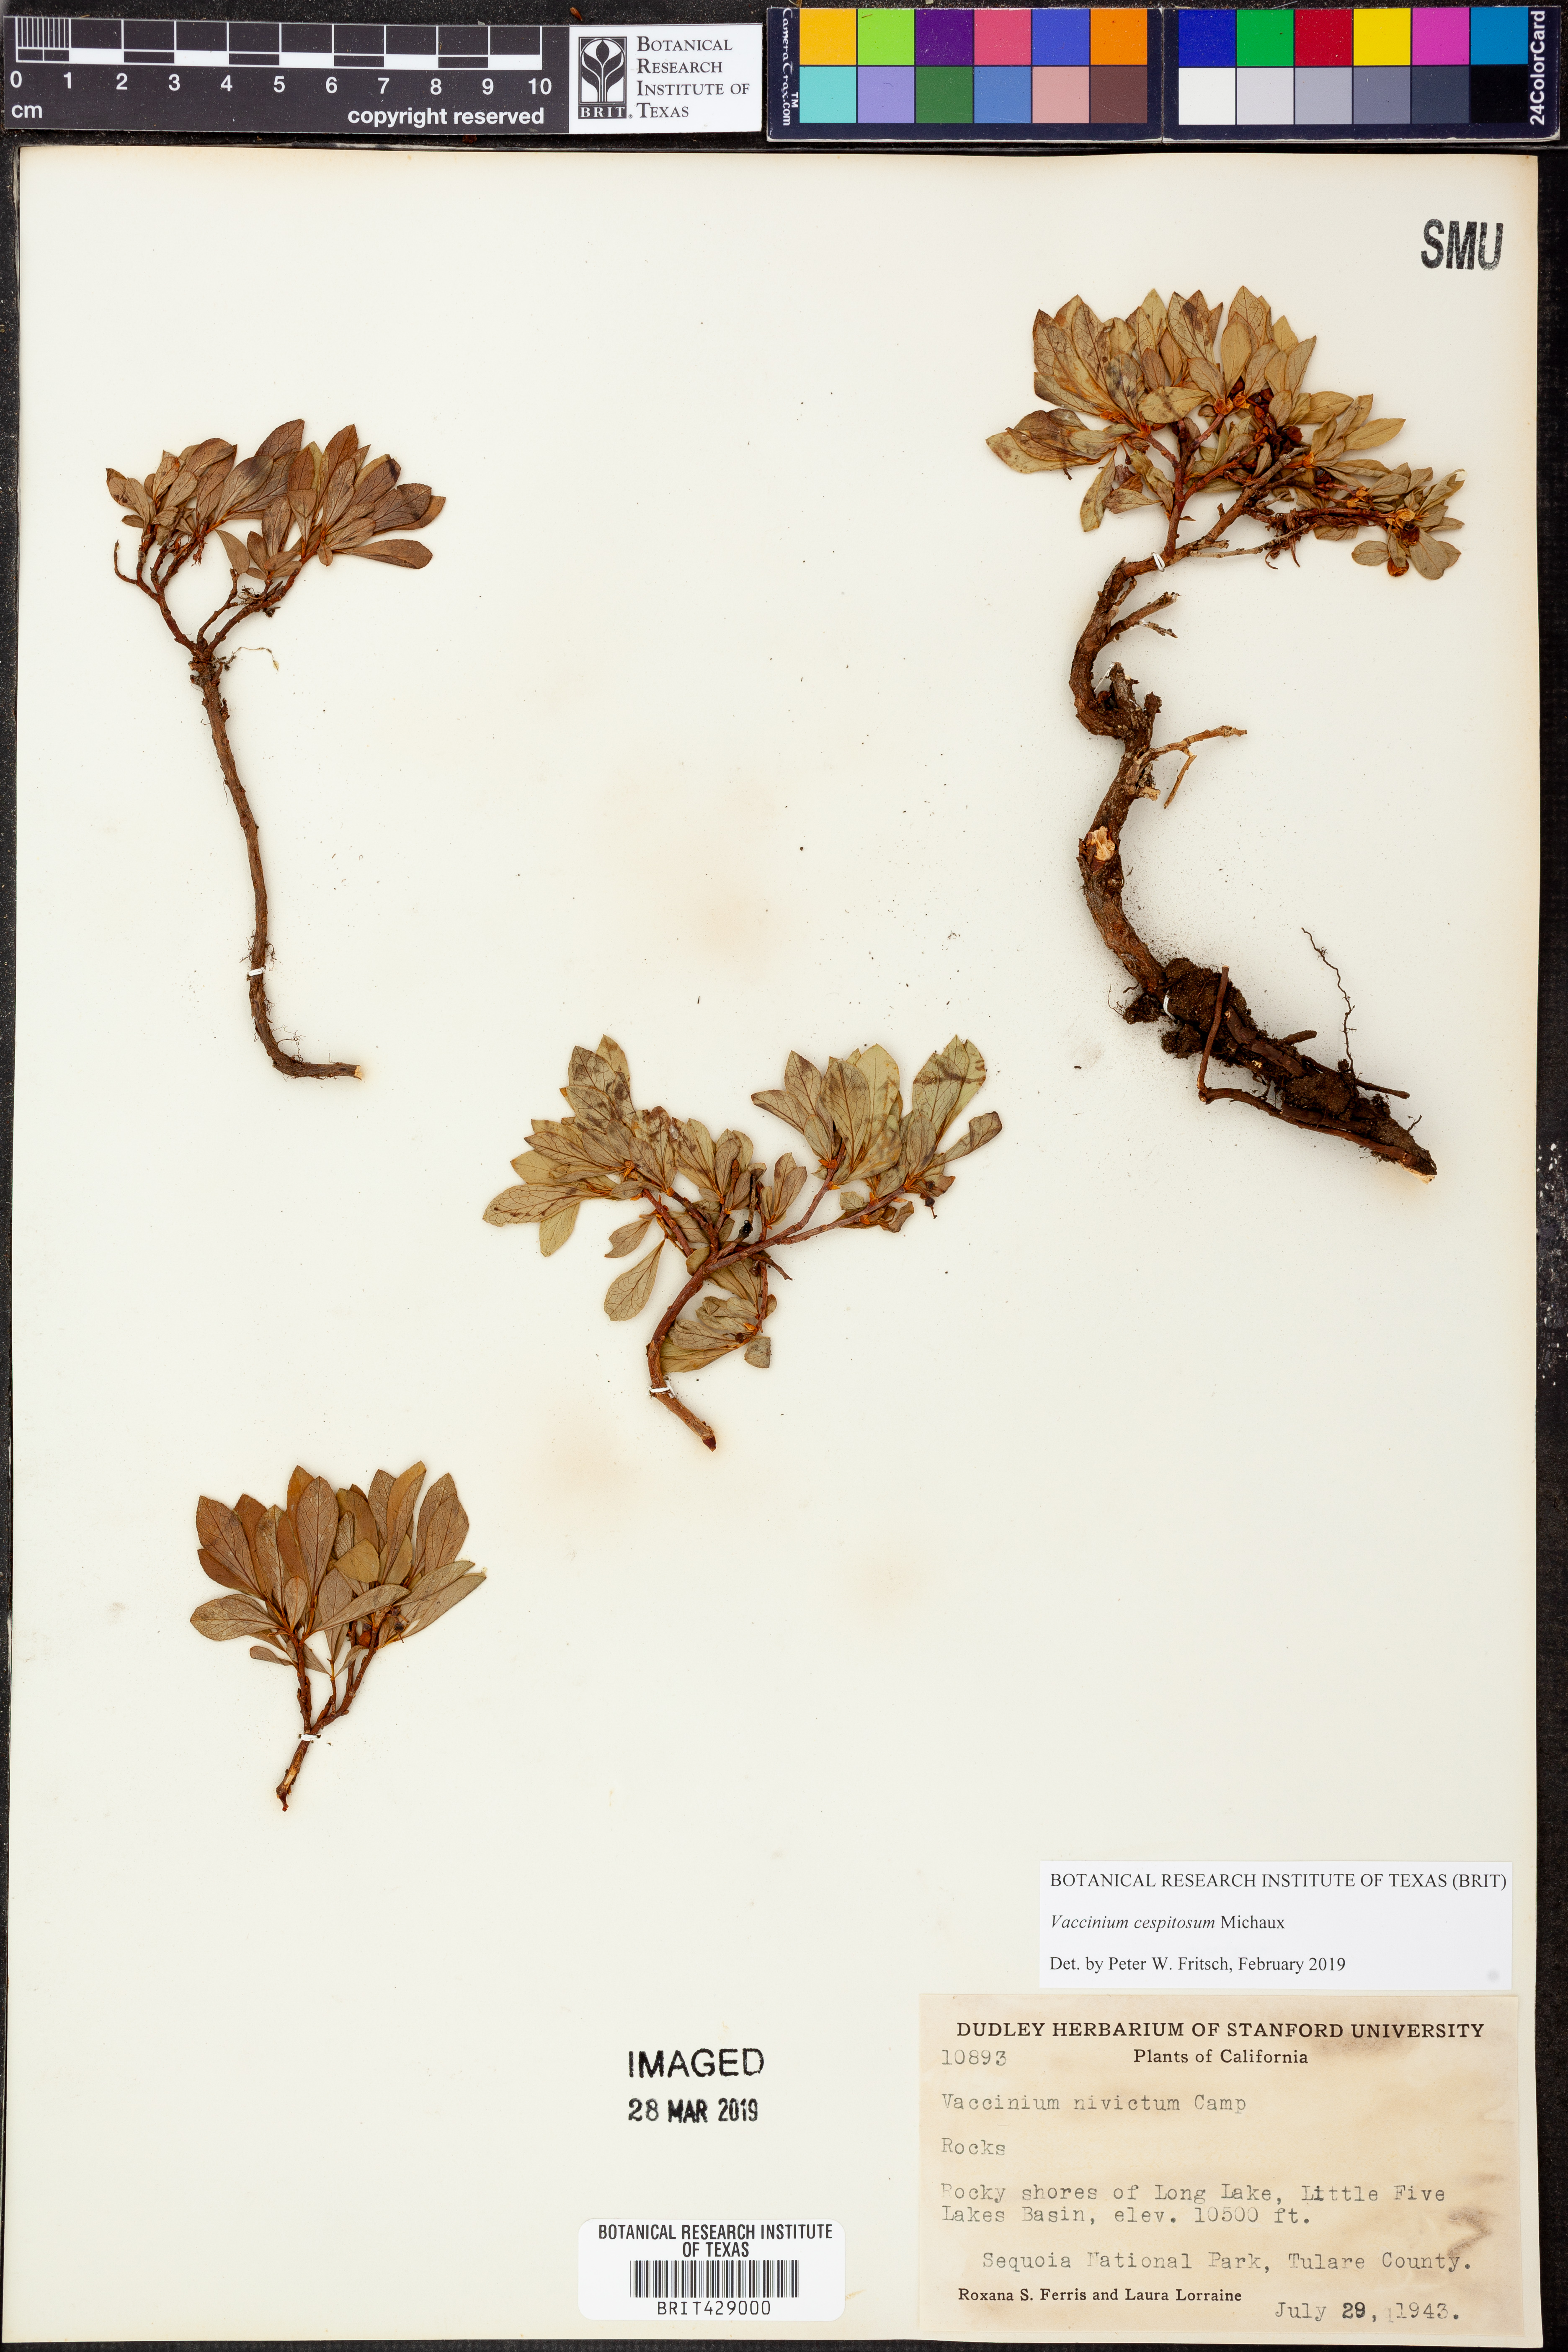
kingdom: Plantae
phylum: Tracheophyta
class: Magnoliopsida
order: Ericales
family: Ericaceae
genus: Vaccinium
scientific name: Vaccinium cespitosum
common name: Dwarf bilberry
